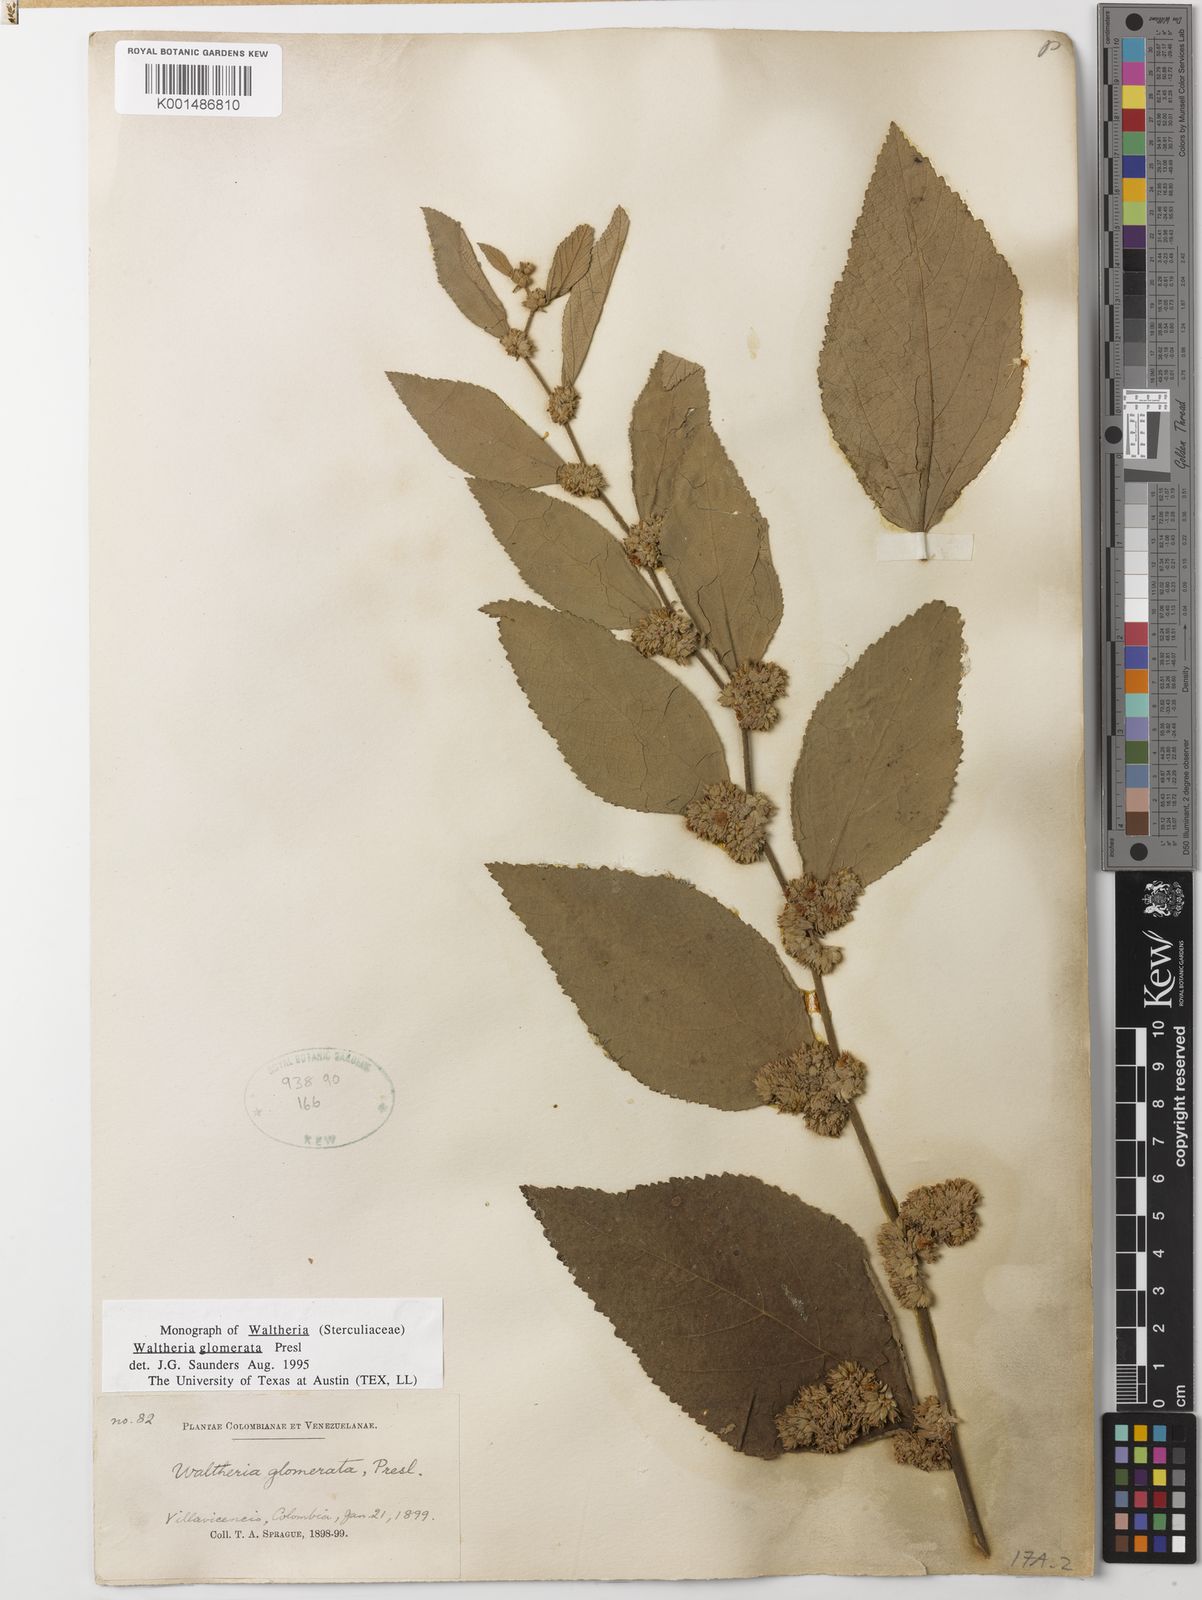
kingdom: Plantae
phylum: Tracheophyta
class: Magnoliopsida
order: Malvales
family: Malvaceae
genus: Waltheria
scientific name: Waltheria glomerata
